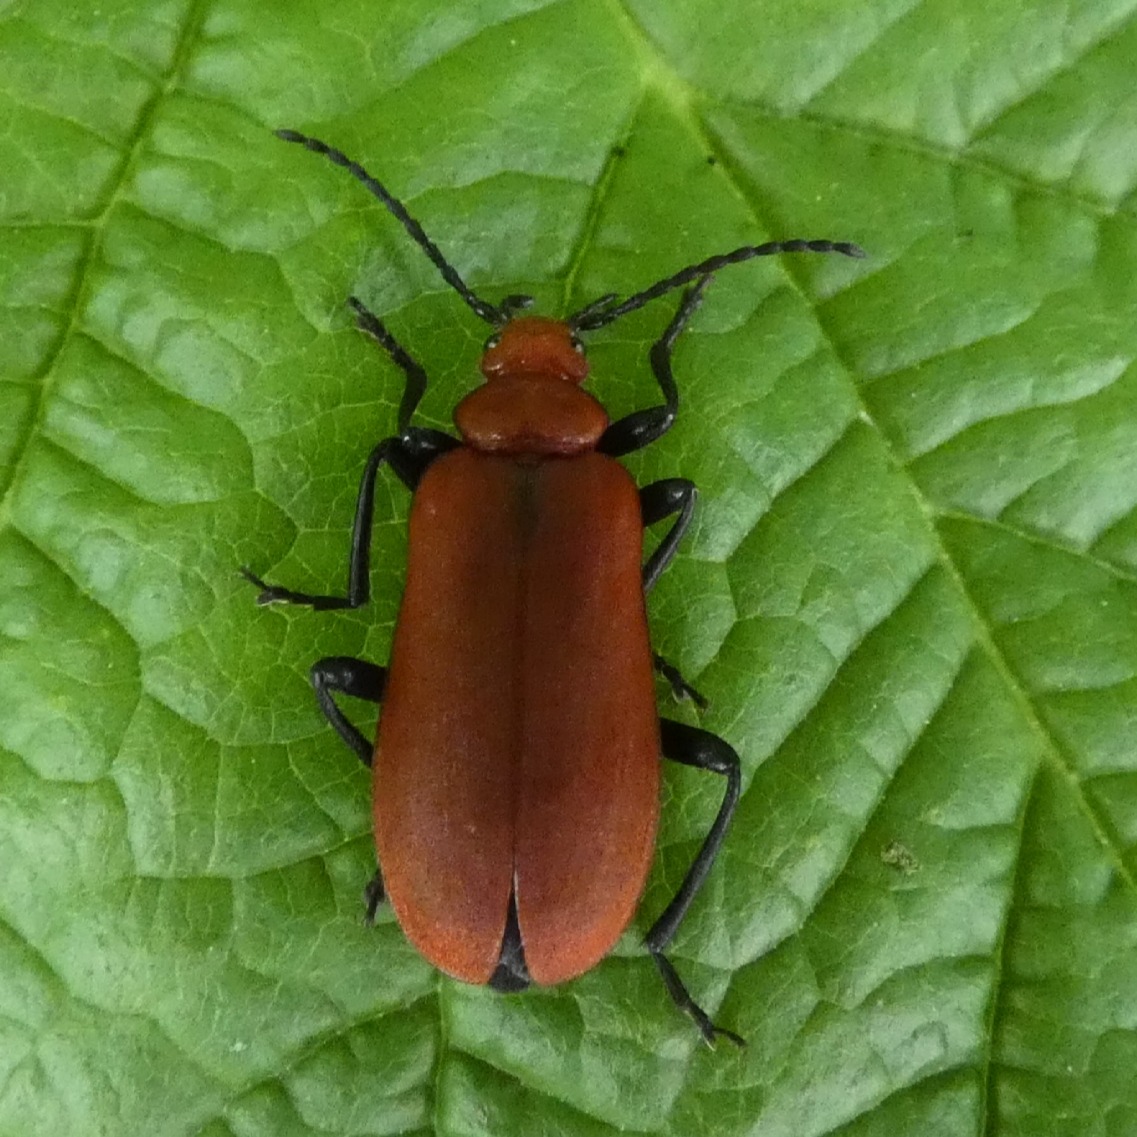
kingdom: Animalia
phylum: Arthropoda
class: Insecta
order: Coleoptera
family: Pyrochroidae
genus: Pyrochroa
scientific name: Pyrochroa serraticornis
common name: Rødhovedet kardinalbille
